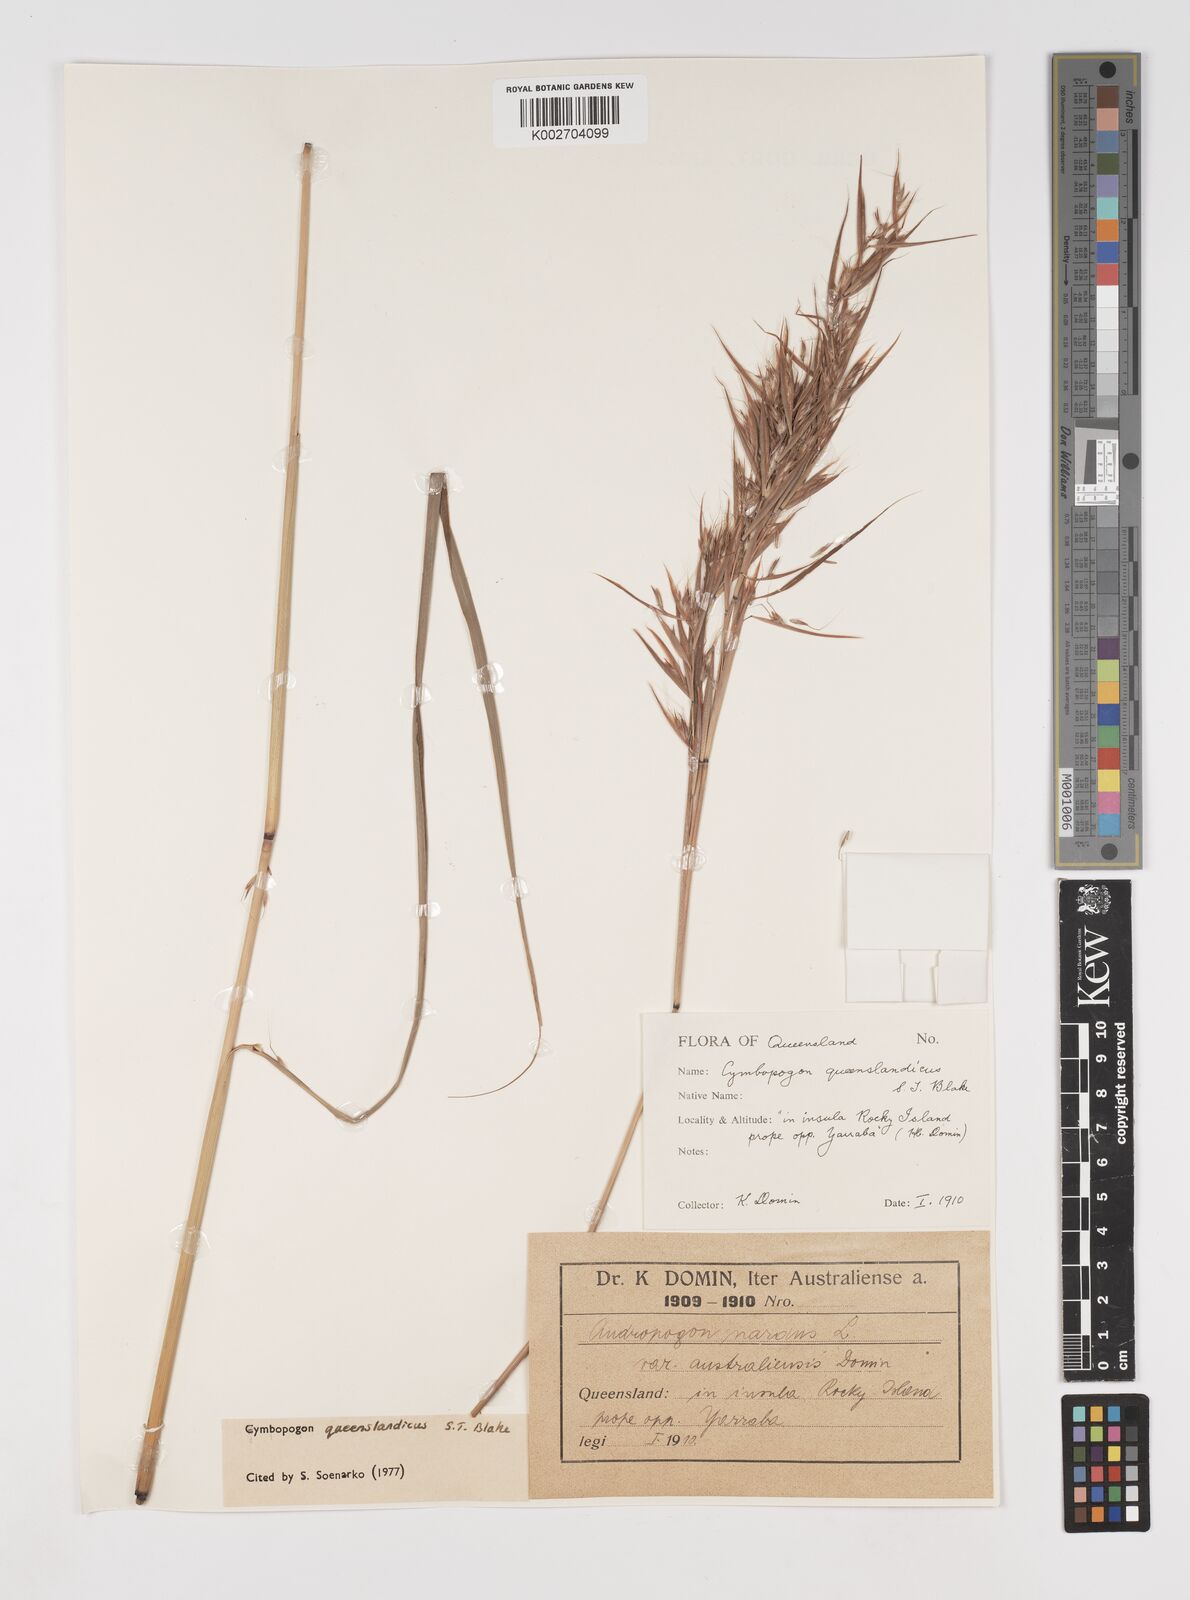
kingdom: Plantae
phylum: Tracheophyta
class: Liliopsida
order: Poales
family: Poaceae
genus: Cymbopogon
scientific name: Cymbopogon queenslandicus
